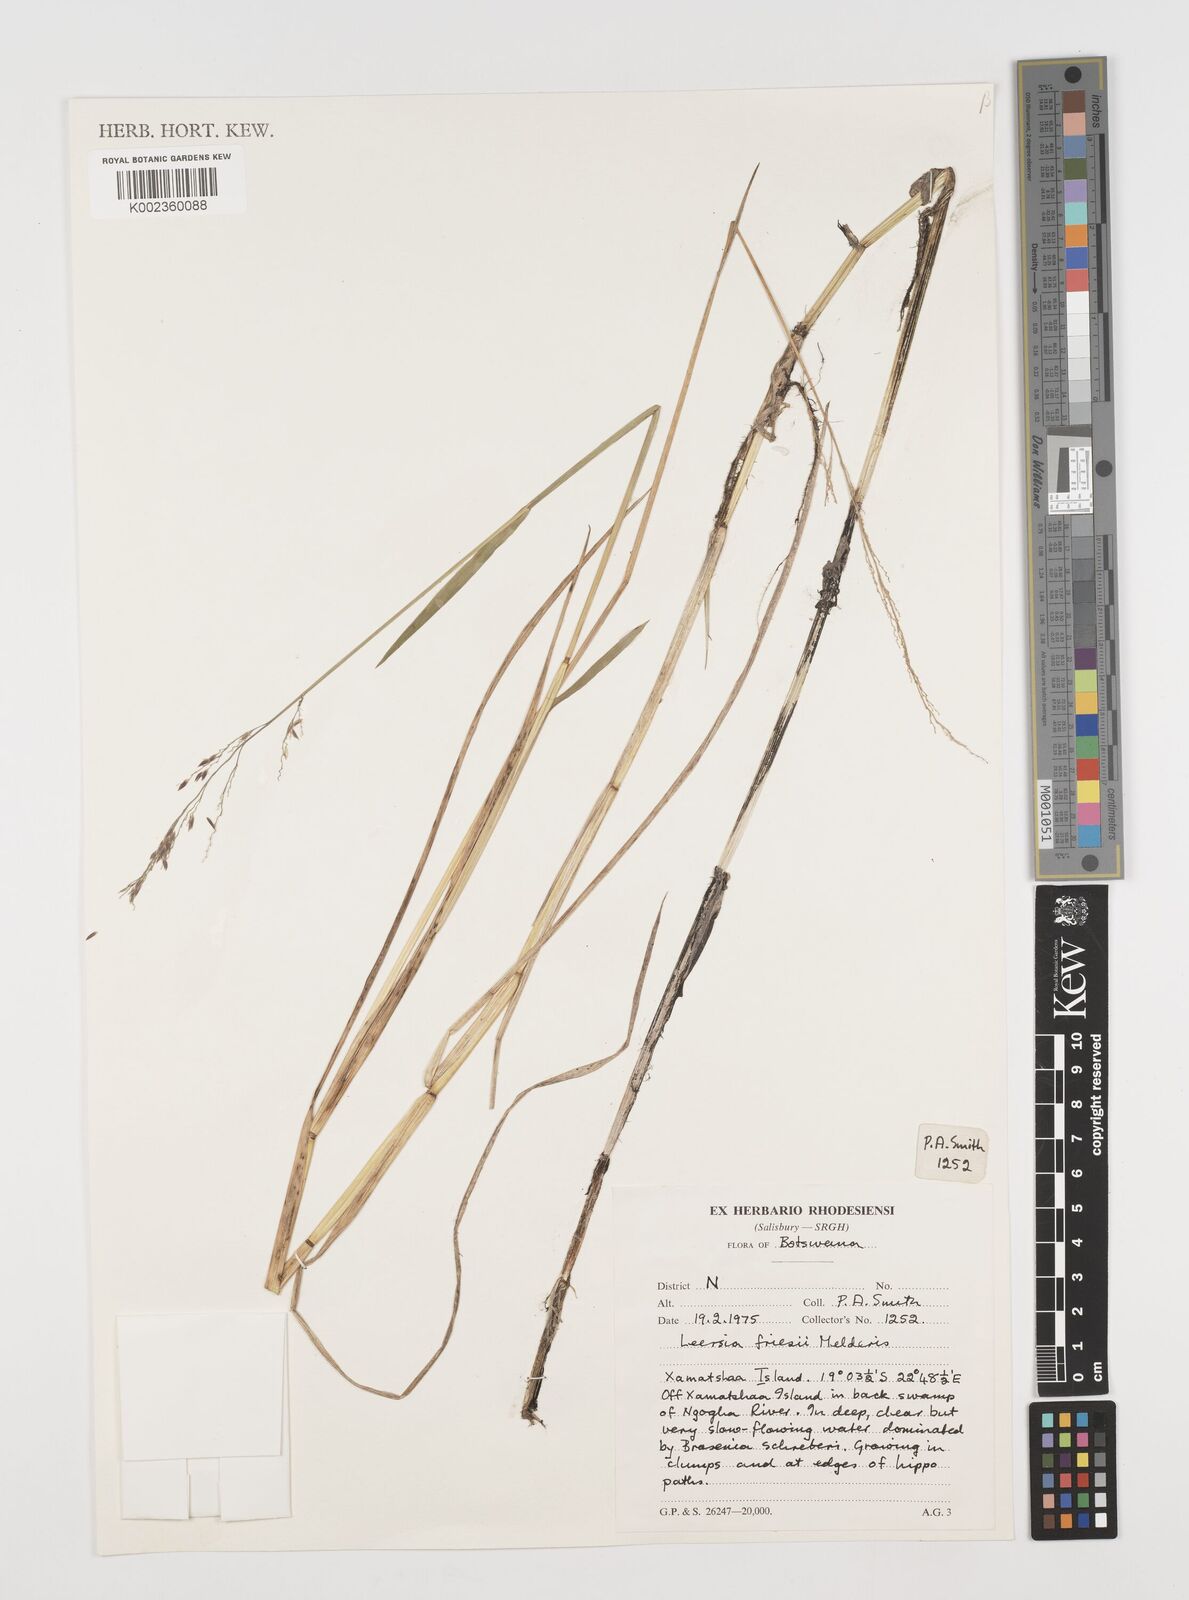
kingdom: Plantae
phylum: Tracheophyta
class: Liliopsida
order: Poales
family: Poaceae
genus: Leersia
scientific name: Leersia friesii
